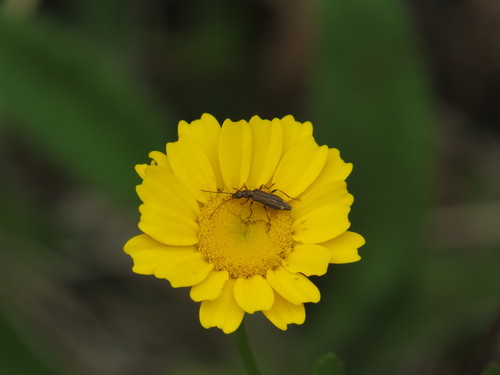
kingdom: Animalia
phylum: Arthropoda
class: Insecta
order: Coleoptera
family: Oedemeridae
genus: Oedemera
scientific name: Oedemera barbara
